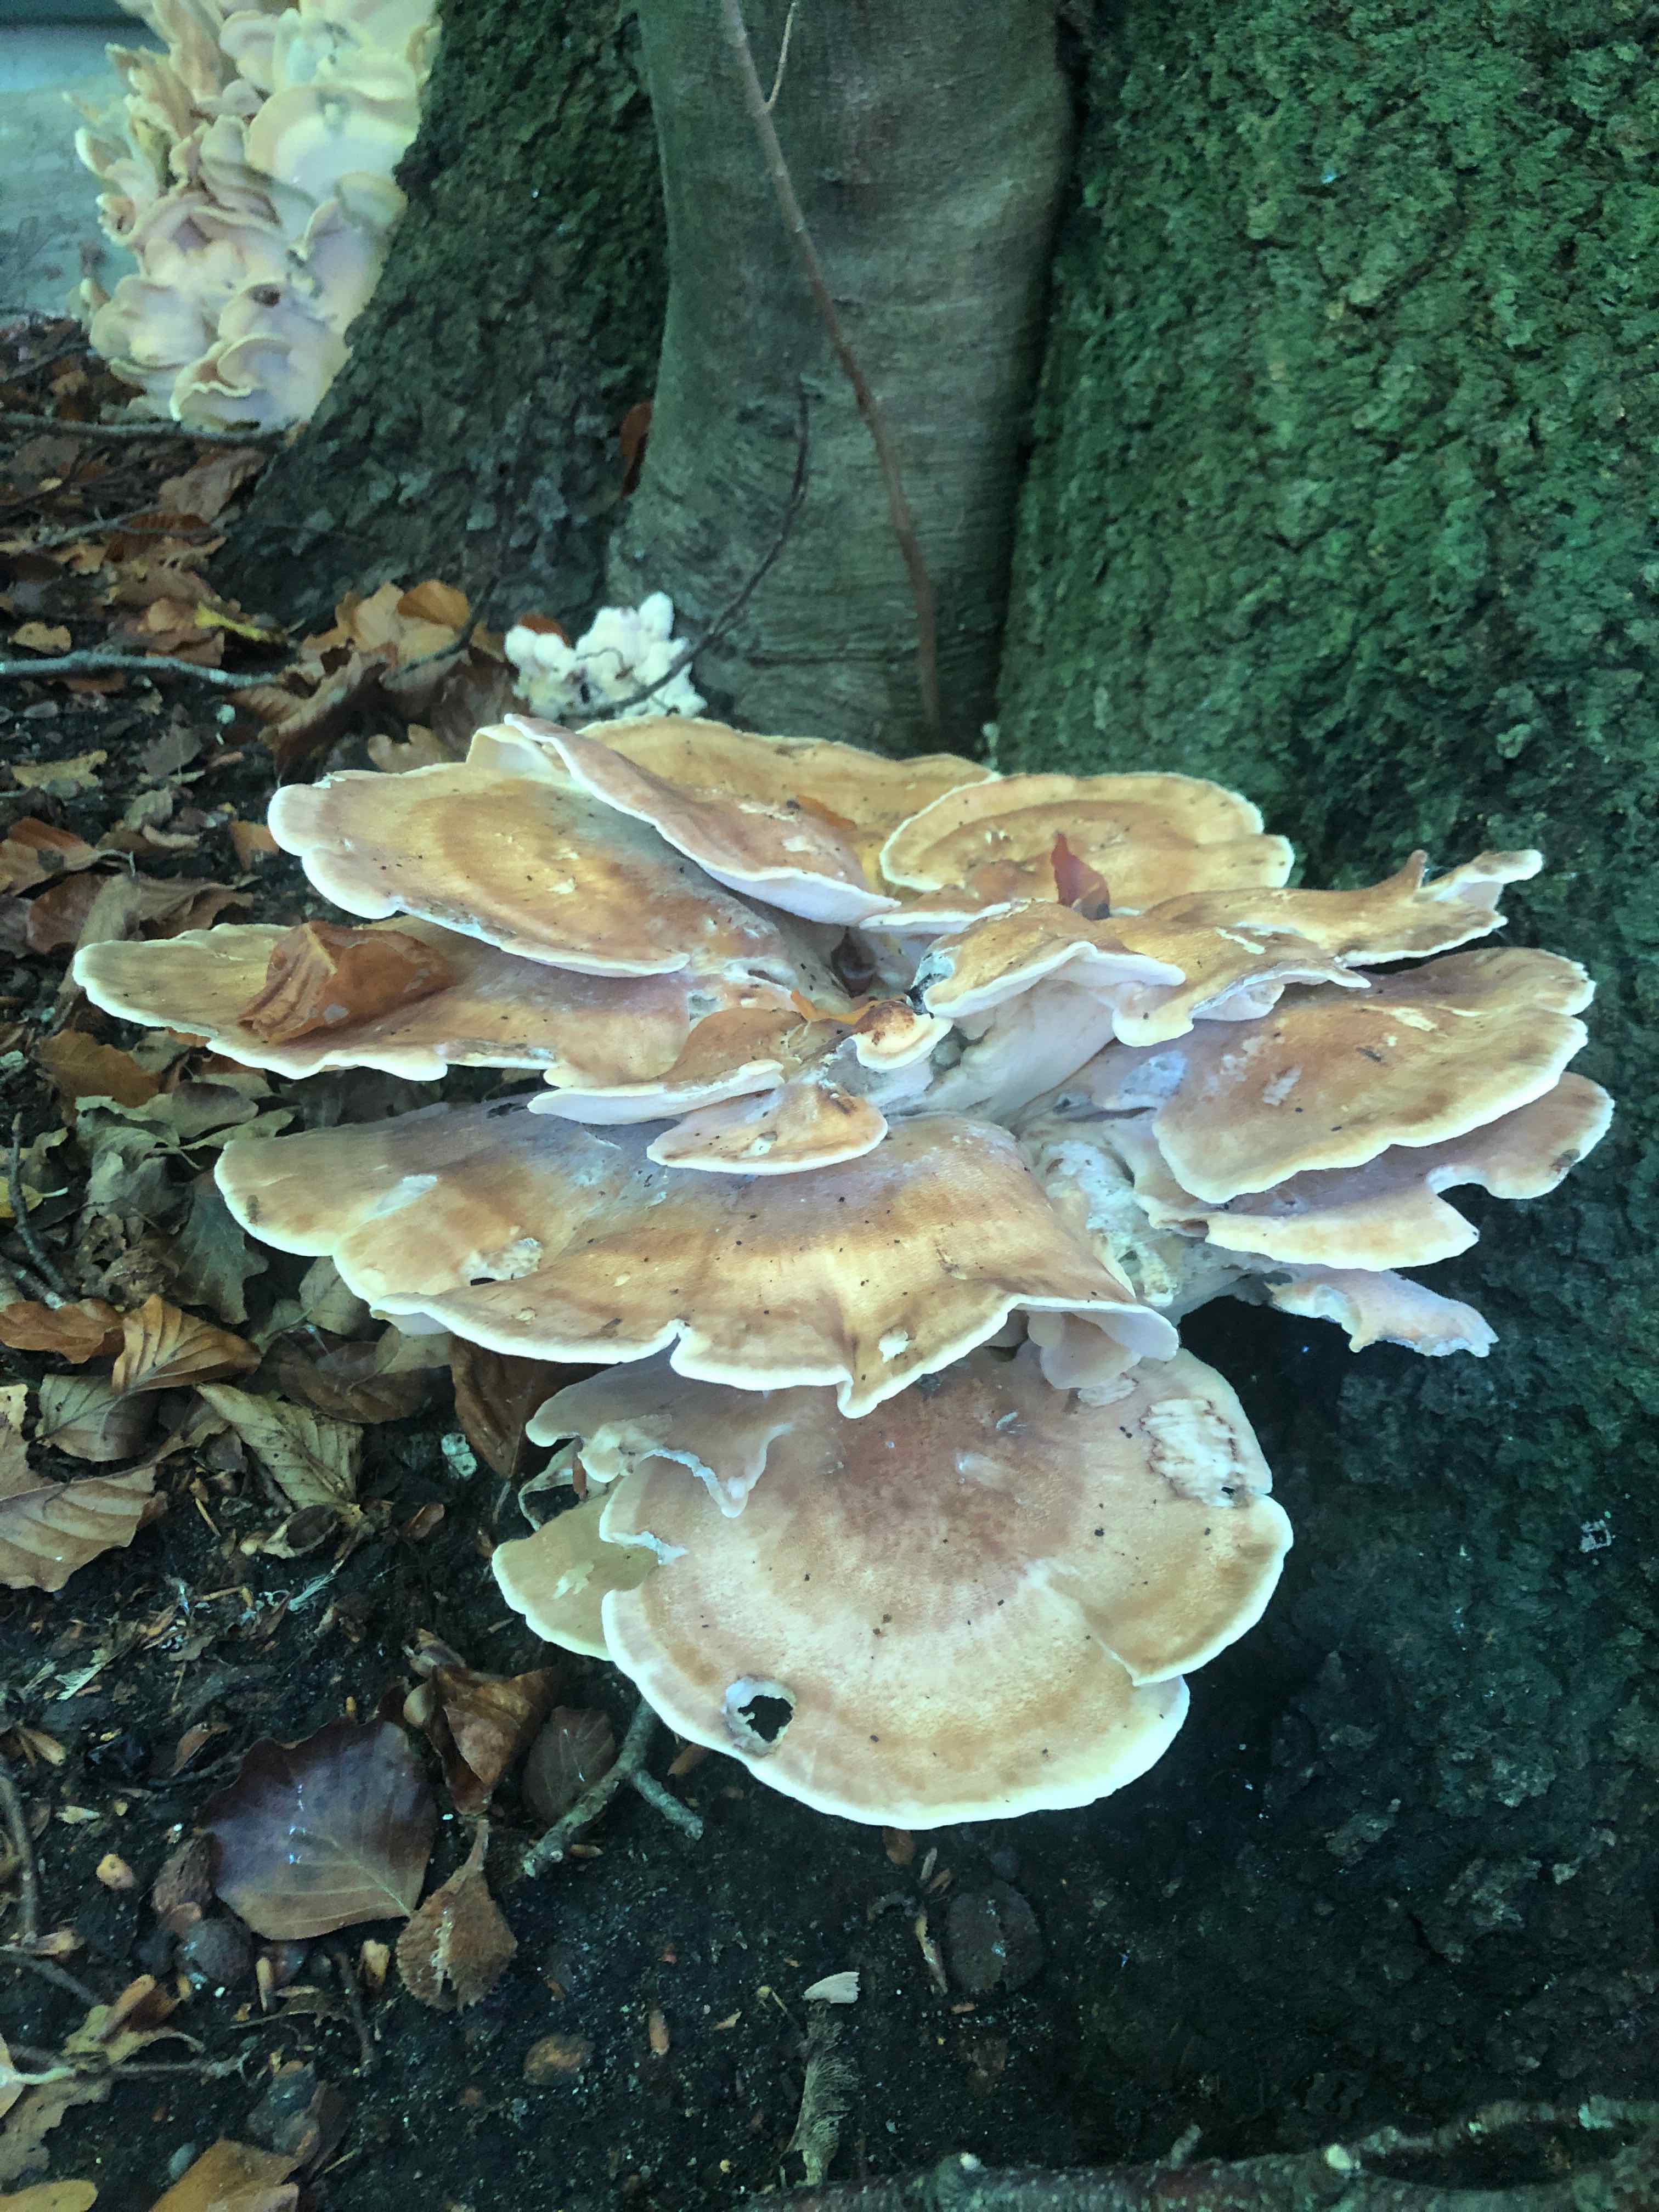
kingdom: Fungi
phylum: Basidiomycota
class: Agaricomycetes
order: Polyporales
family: Meripilaceae
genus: Meripilus
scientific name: Meripilus giganteus
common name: kæmpeporesvamp
